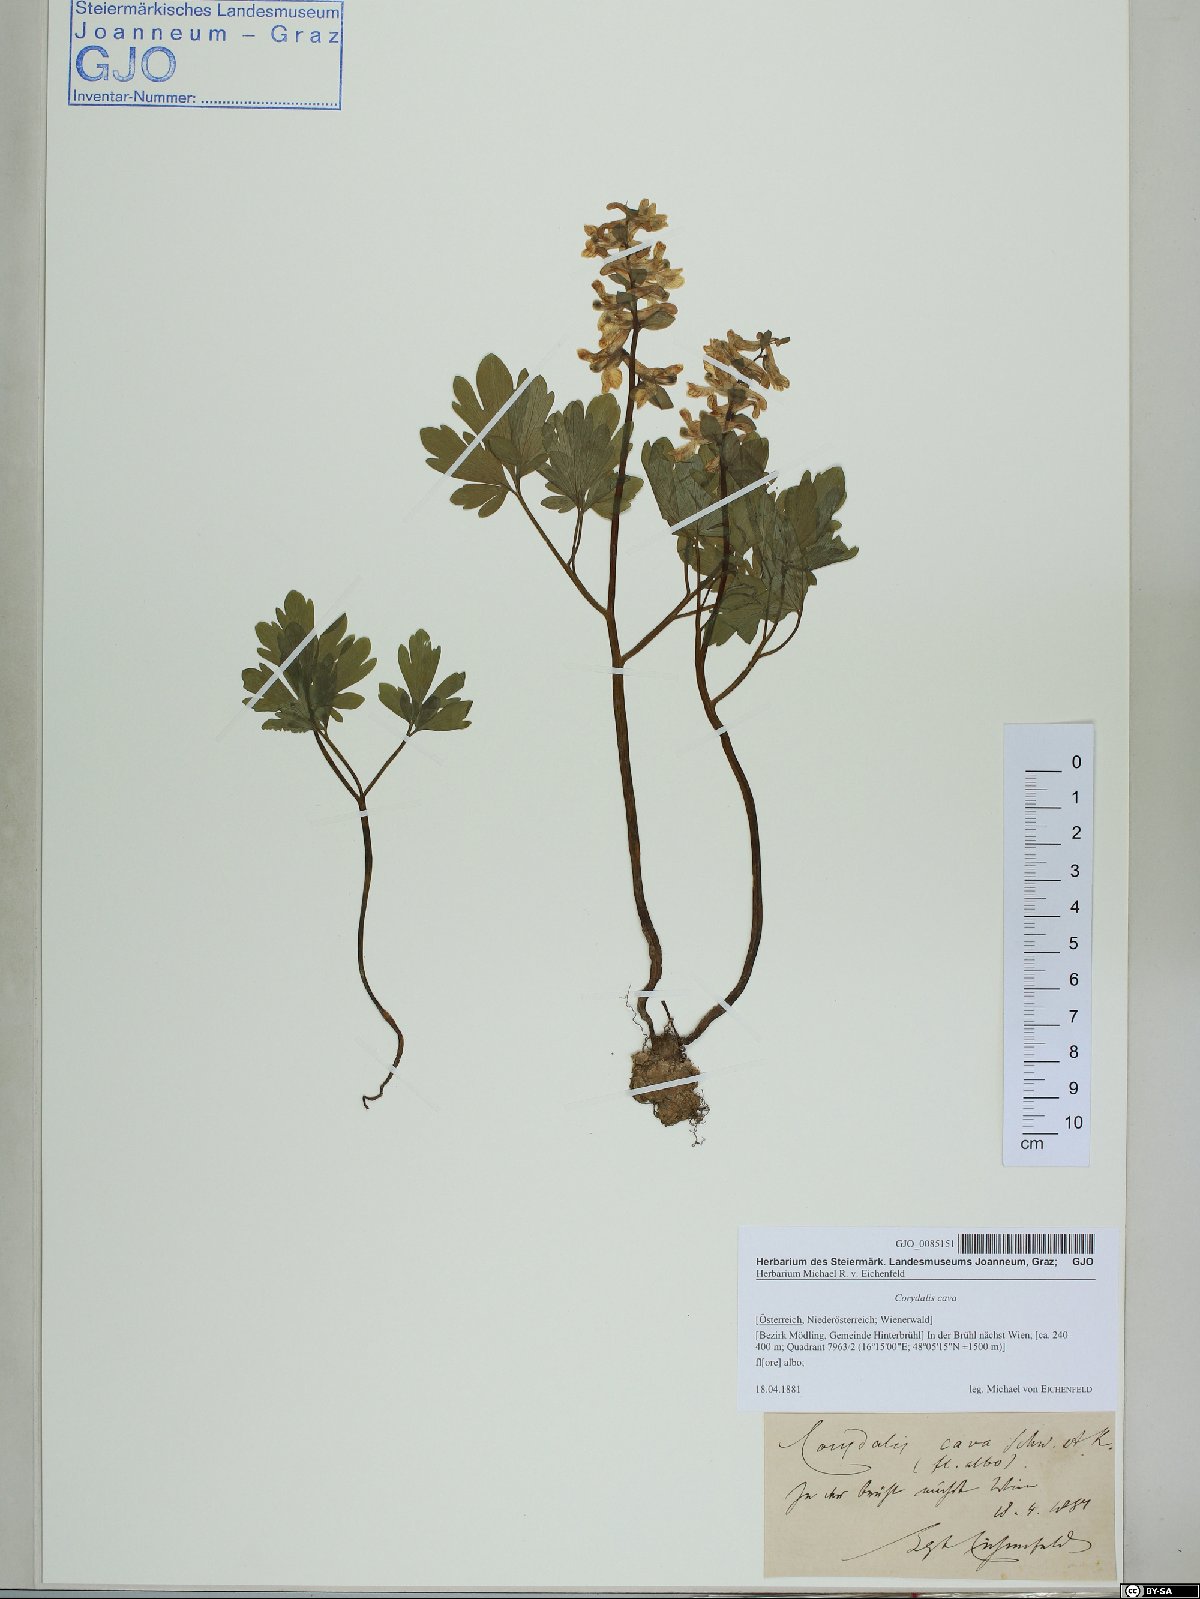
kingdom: Plantae
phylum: Tracheophyta
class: Magnoliopsida
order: Ranunculales
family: Papaveraceae
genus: Corydalis
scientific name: Corydalis cava
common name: Hollowroot
